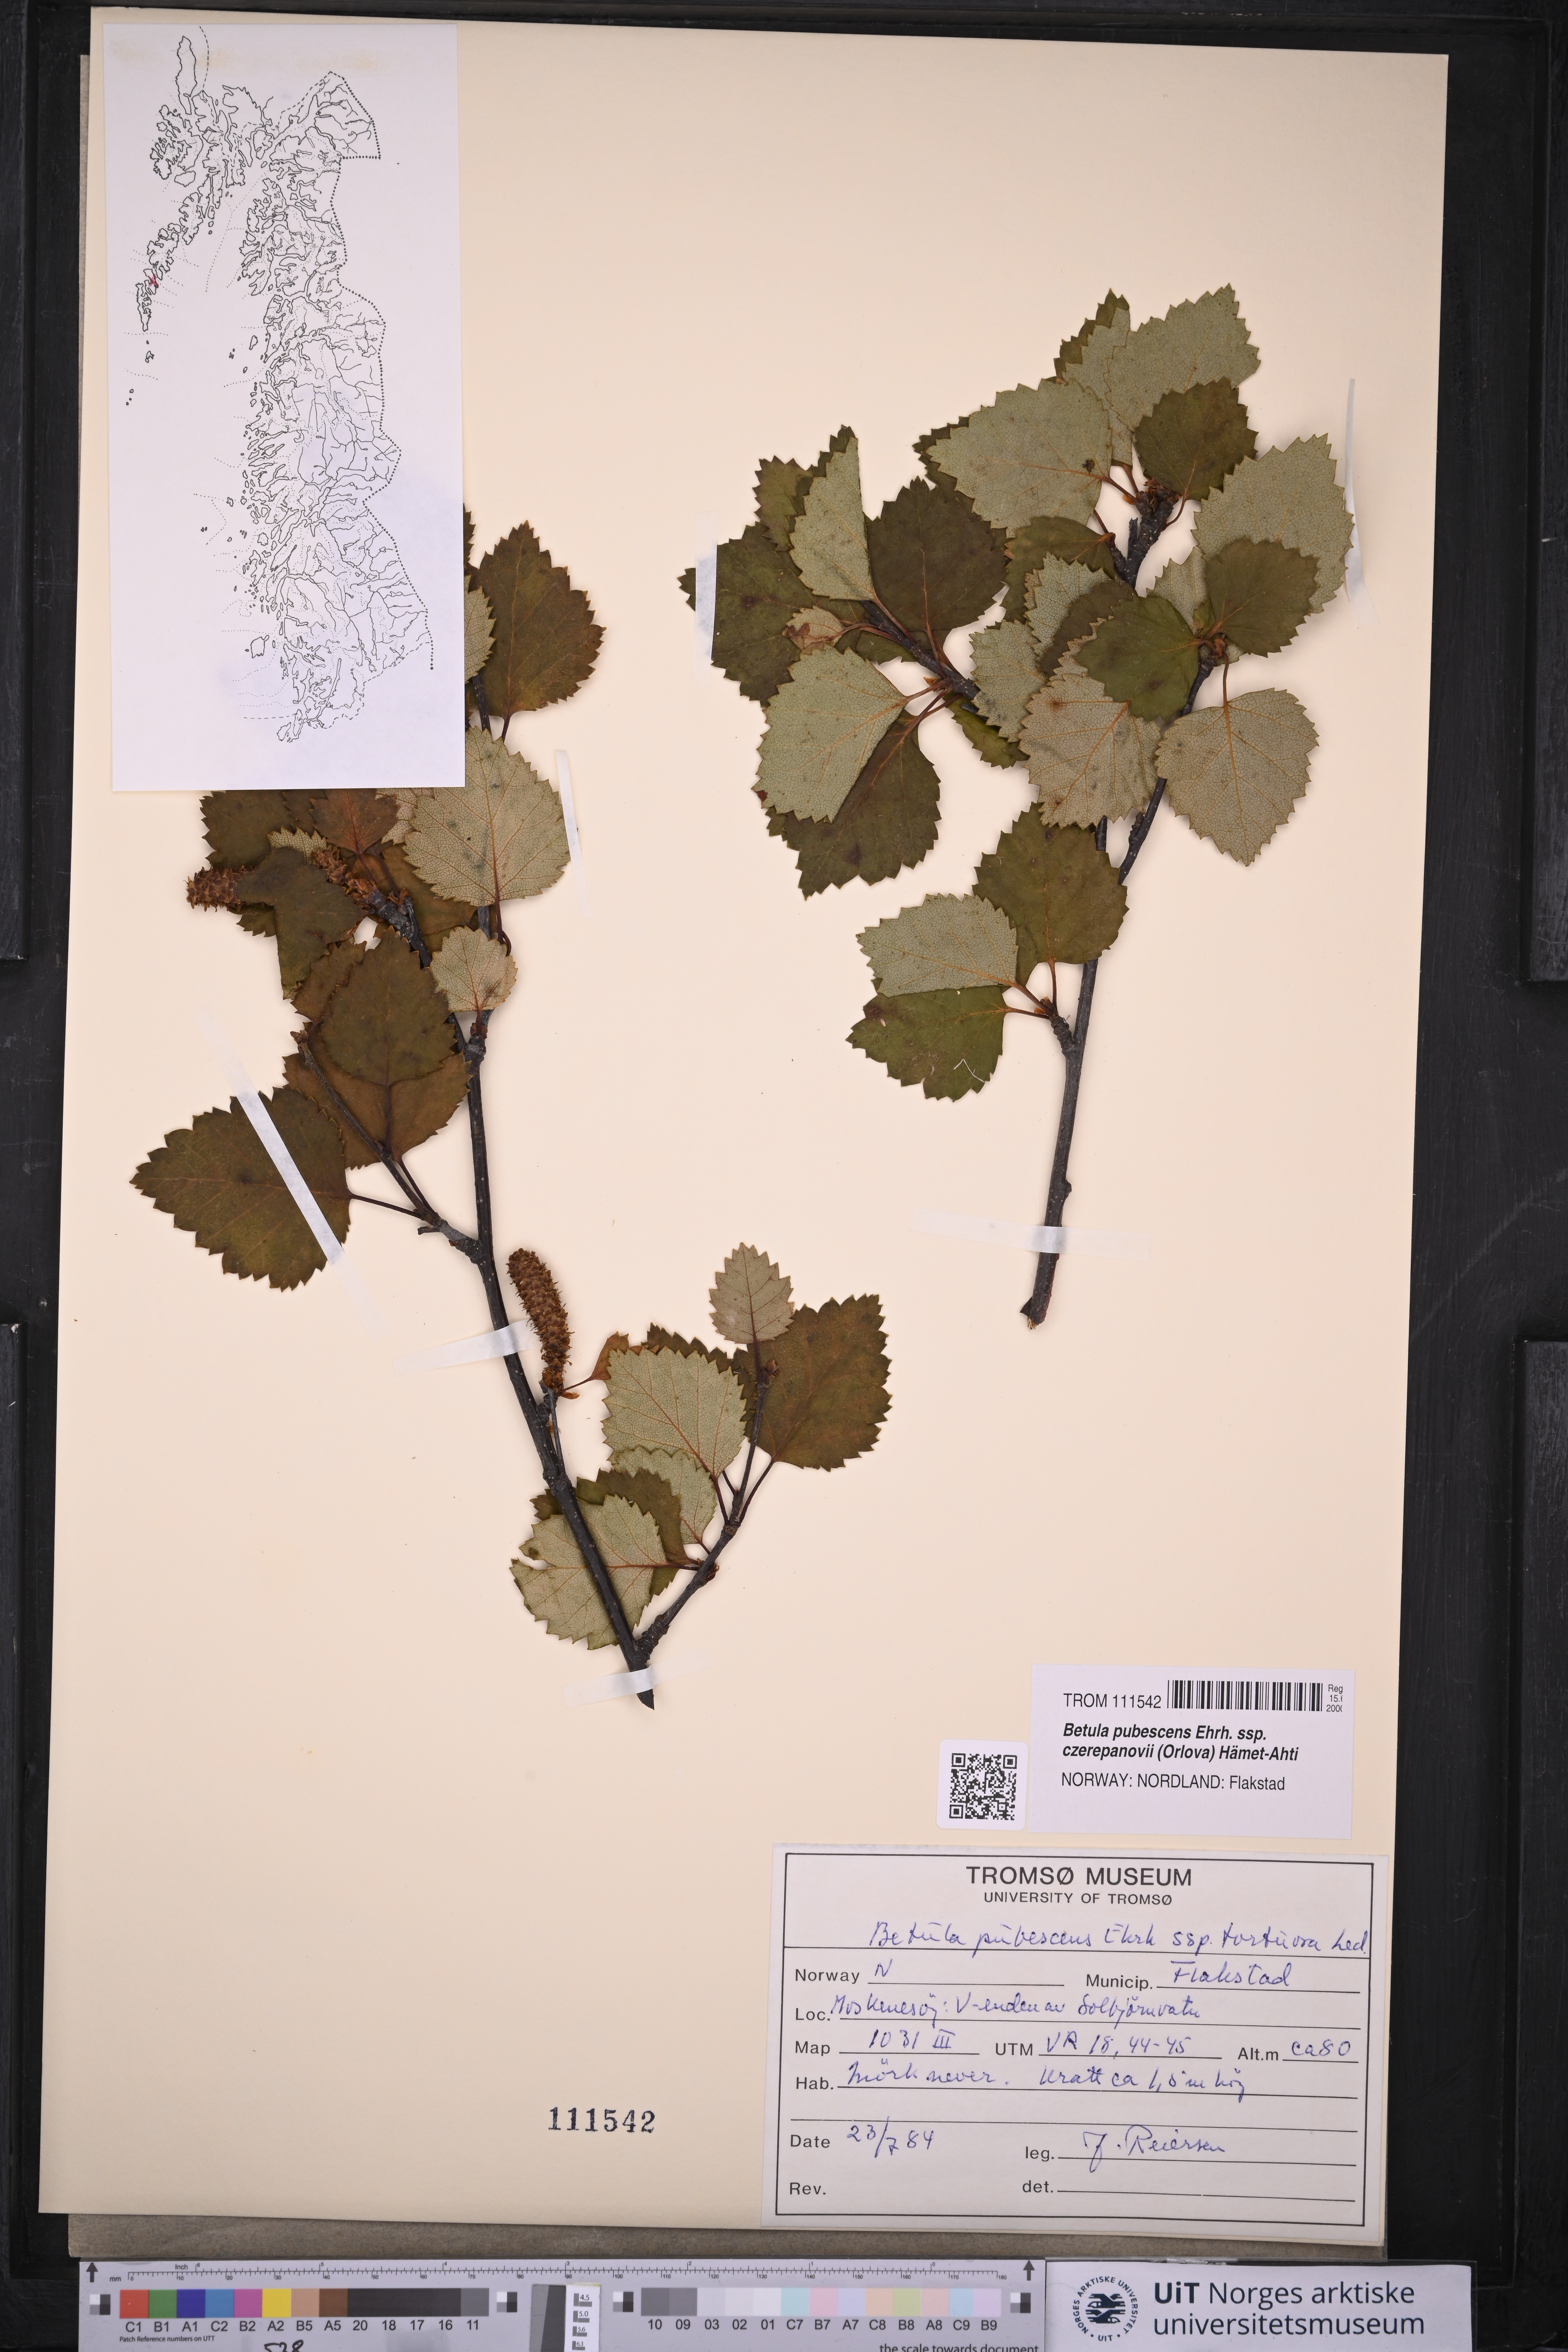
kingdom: Plantae
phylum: Tracheophyta
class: Magnoliopsida
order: Fagales
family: Betulaceae
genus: Betula
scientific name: Betula pubescens
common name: Downy birch
